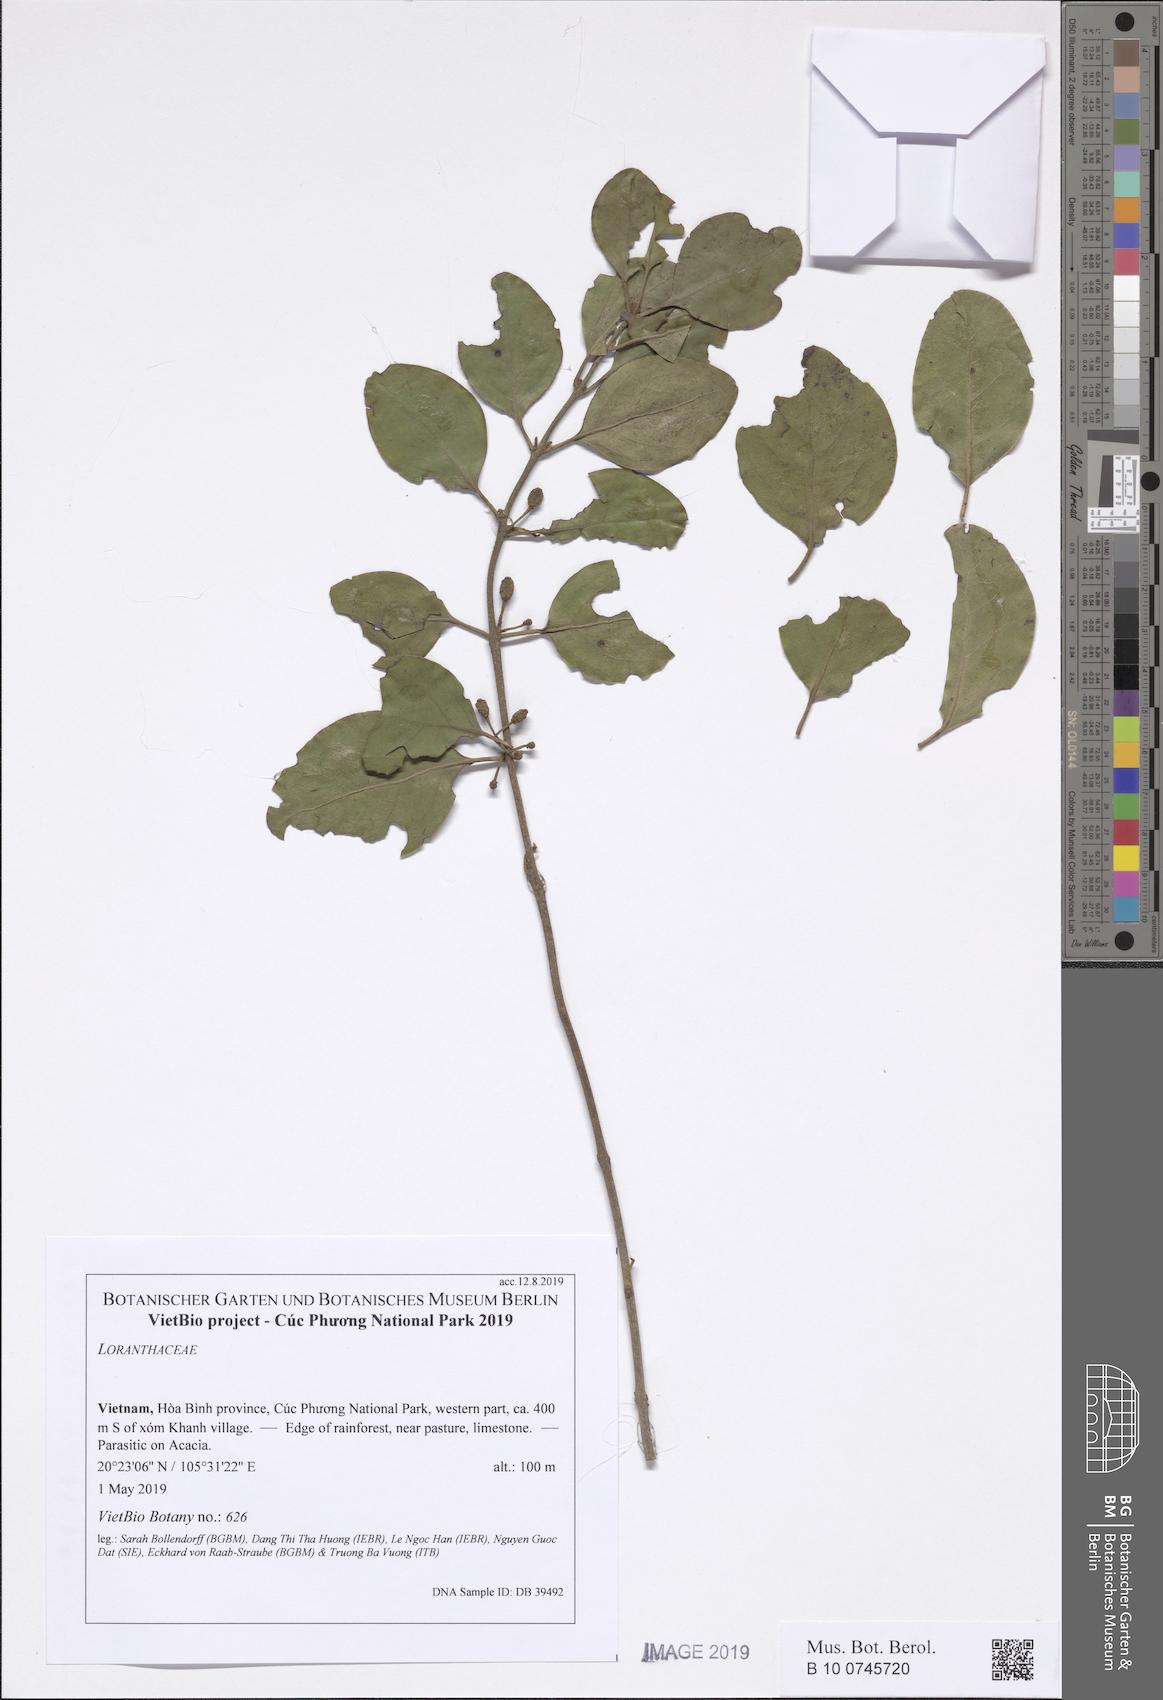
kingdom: Plantae
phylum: Tracheophyta
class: Magnoliopsida
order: Santalales
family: Loranthaceae
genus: Taxillus
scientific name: Taxillus chinensis
